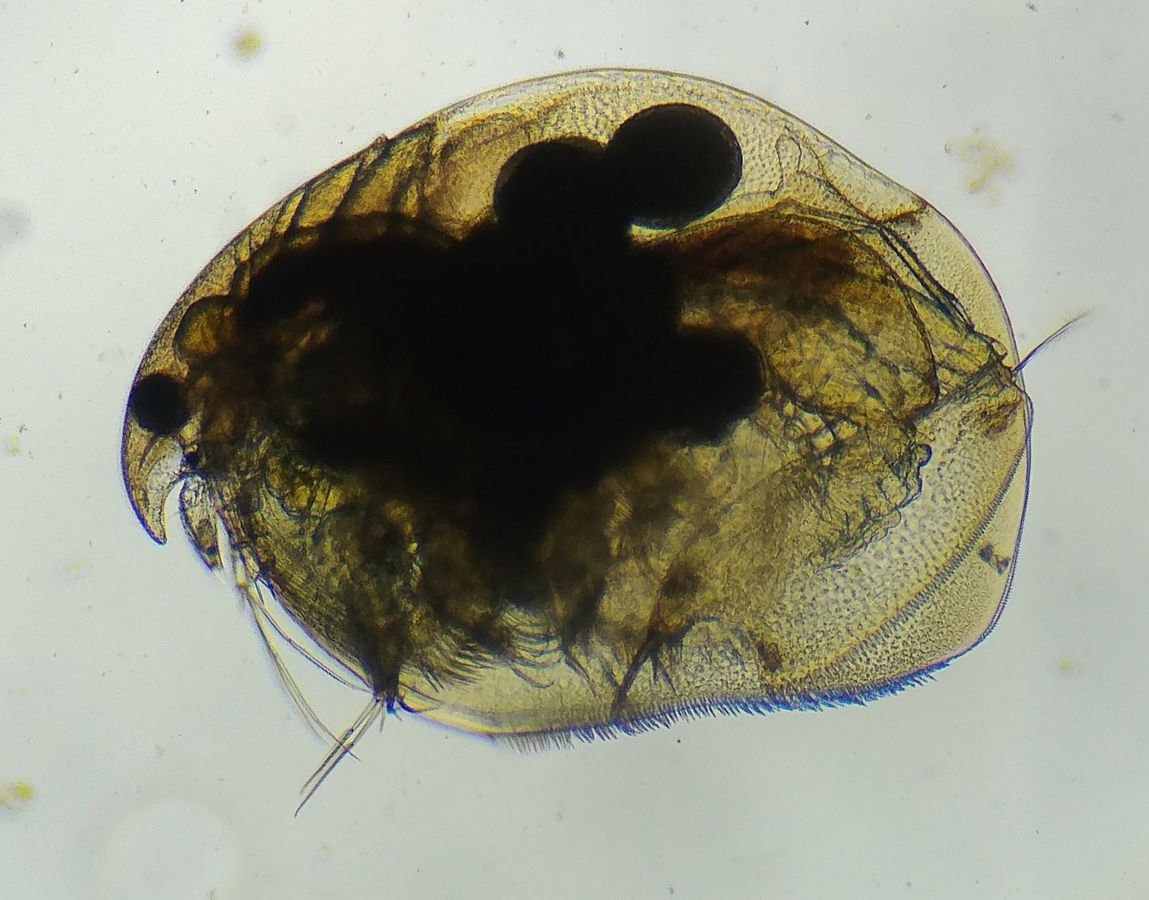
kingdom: Animalia
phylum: Arthropoda
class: Branchiopoda
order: Diplostraca
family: Eurycercidae
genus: Eurycercus
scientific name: Eurycercus lamellatus
